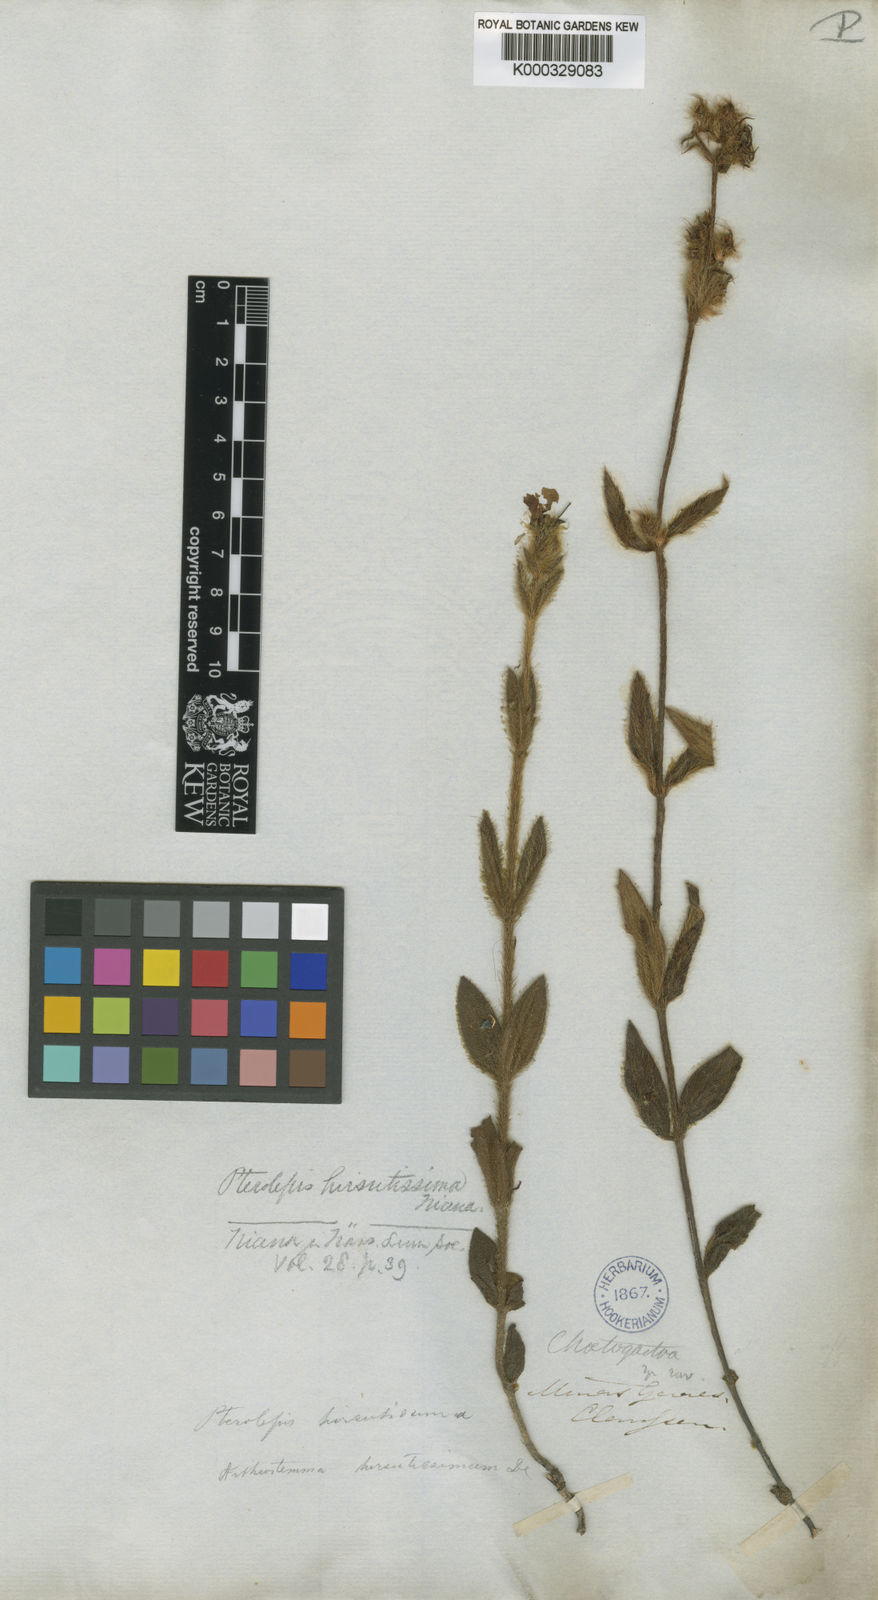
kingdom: Plantae
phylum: Tracheophyta
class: Magnoliopsida
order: Myrtales
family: Melastomataceae
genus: Chaetogastra
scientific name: Chaetogastra gracilis
